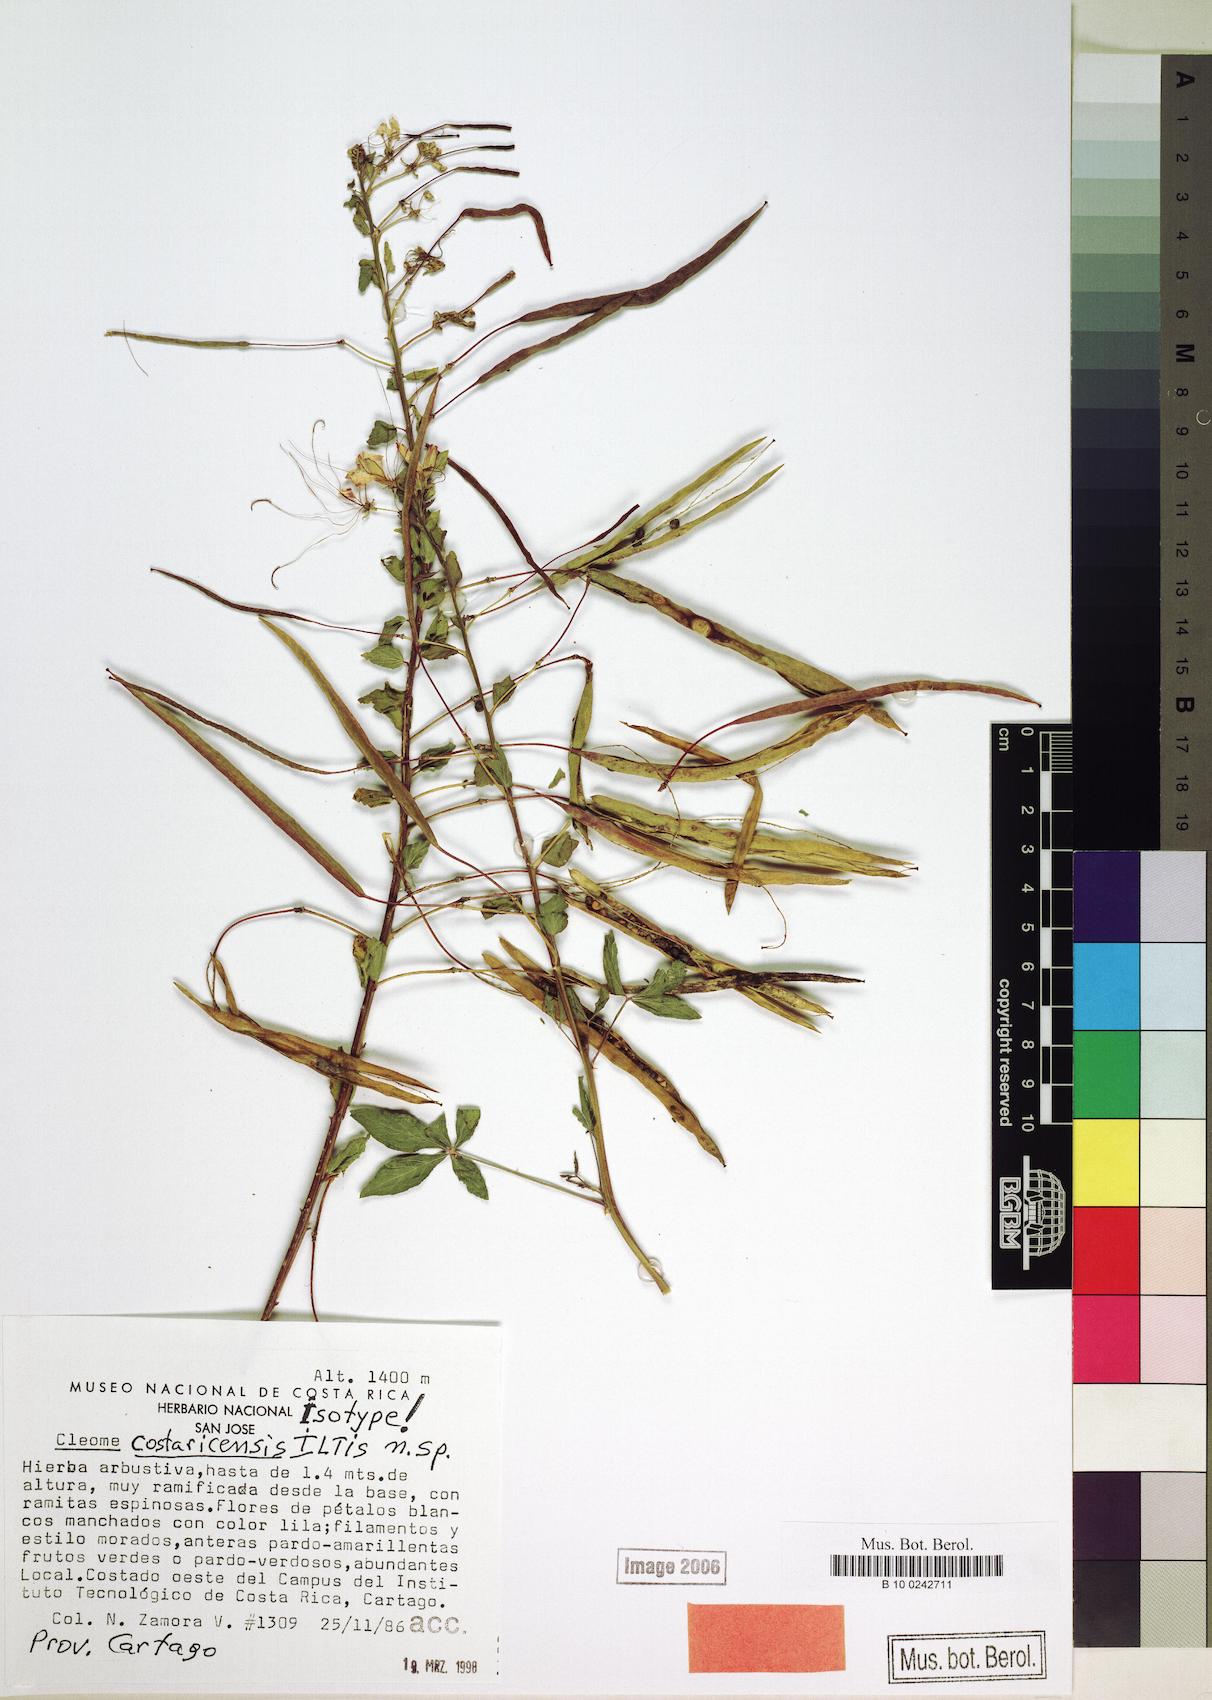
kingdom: Plantae
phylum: Tracheophyta
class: Magnoliopsida
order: Brassicales
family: Cleomaceae
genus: Tarenaya
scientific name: Tarenaya costaricensis
